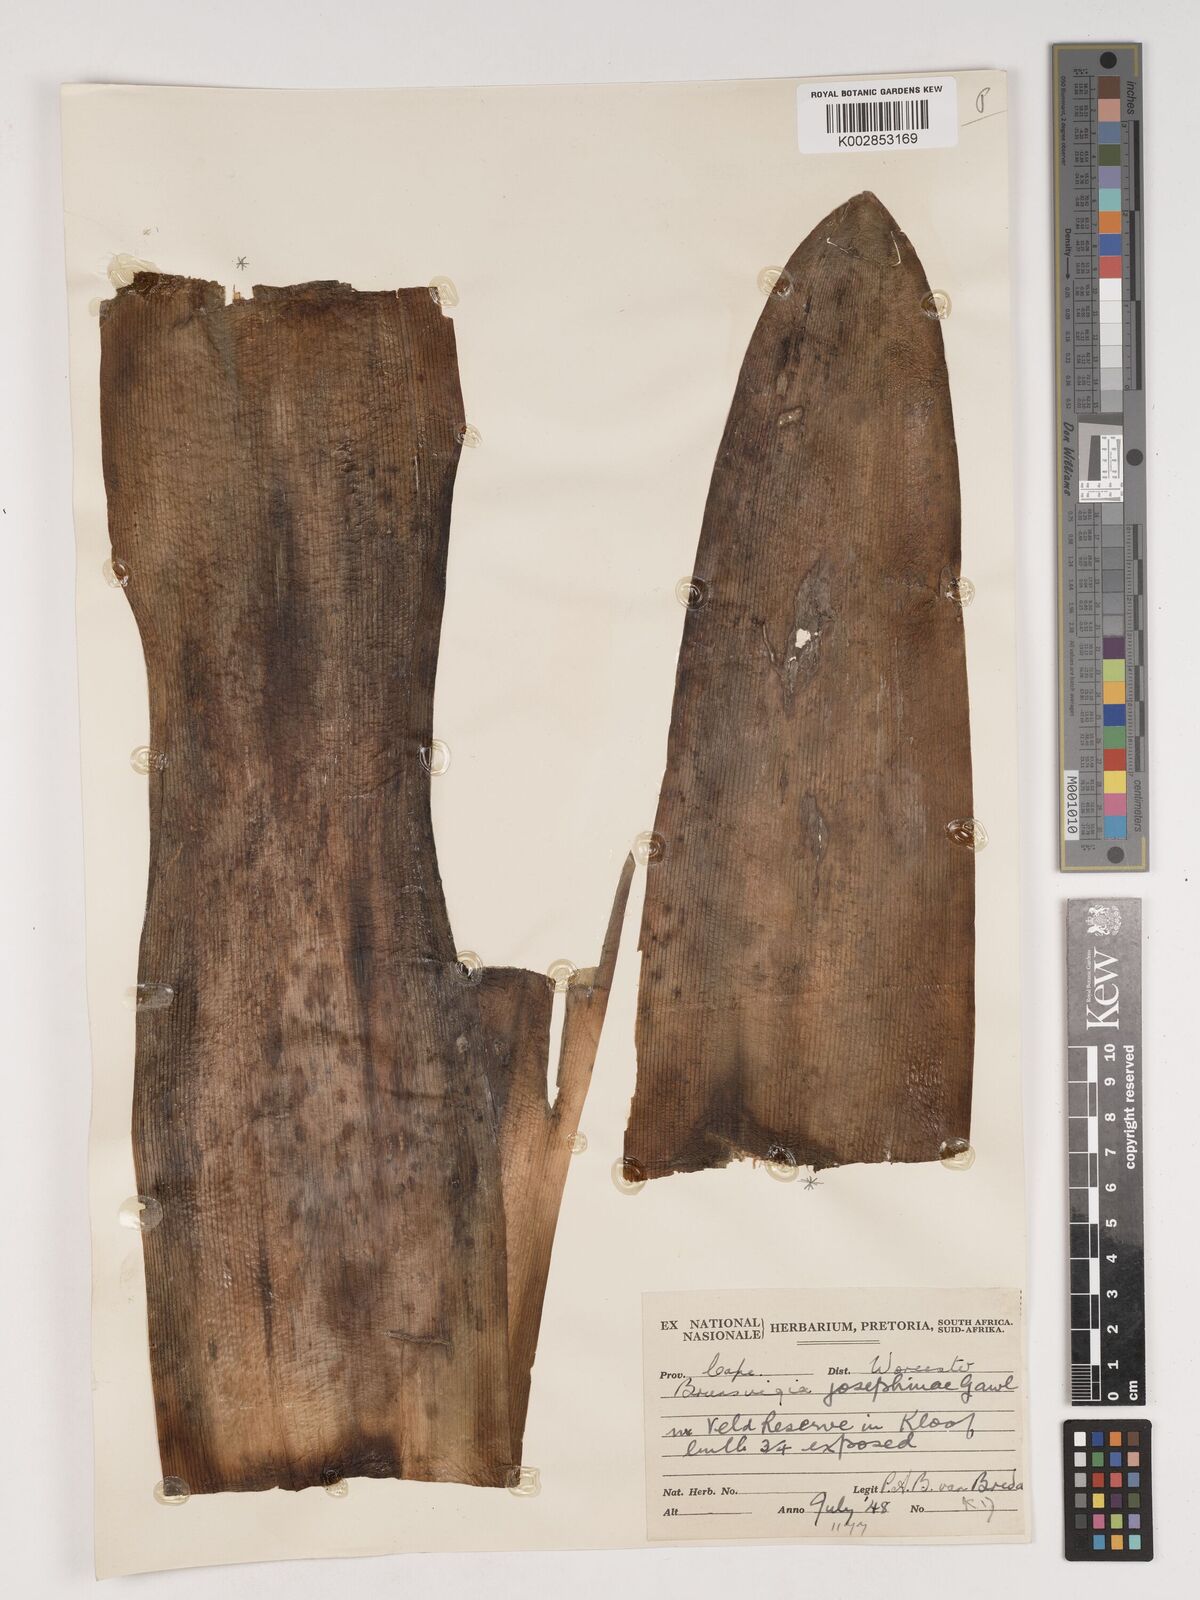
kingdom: Plantae
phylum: Tracheophyta
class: Liliopsida
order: Asparagales
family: Amaryllidaceae
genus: Brunsvigia
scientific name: Brunsvigia josephinae
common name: Josephine's-lily
